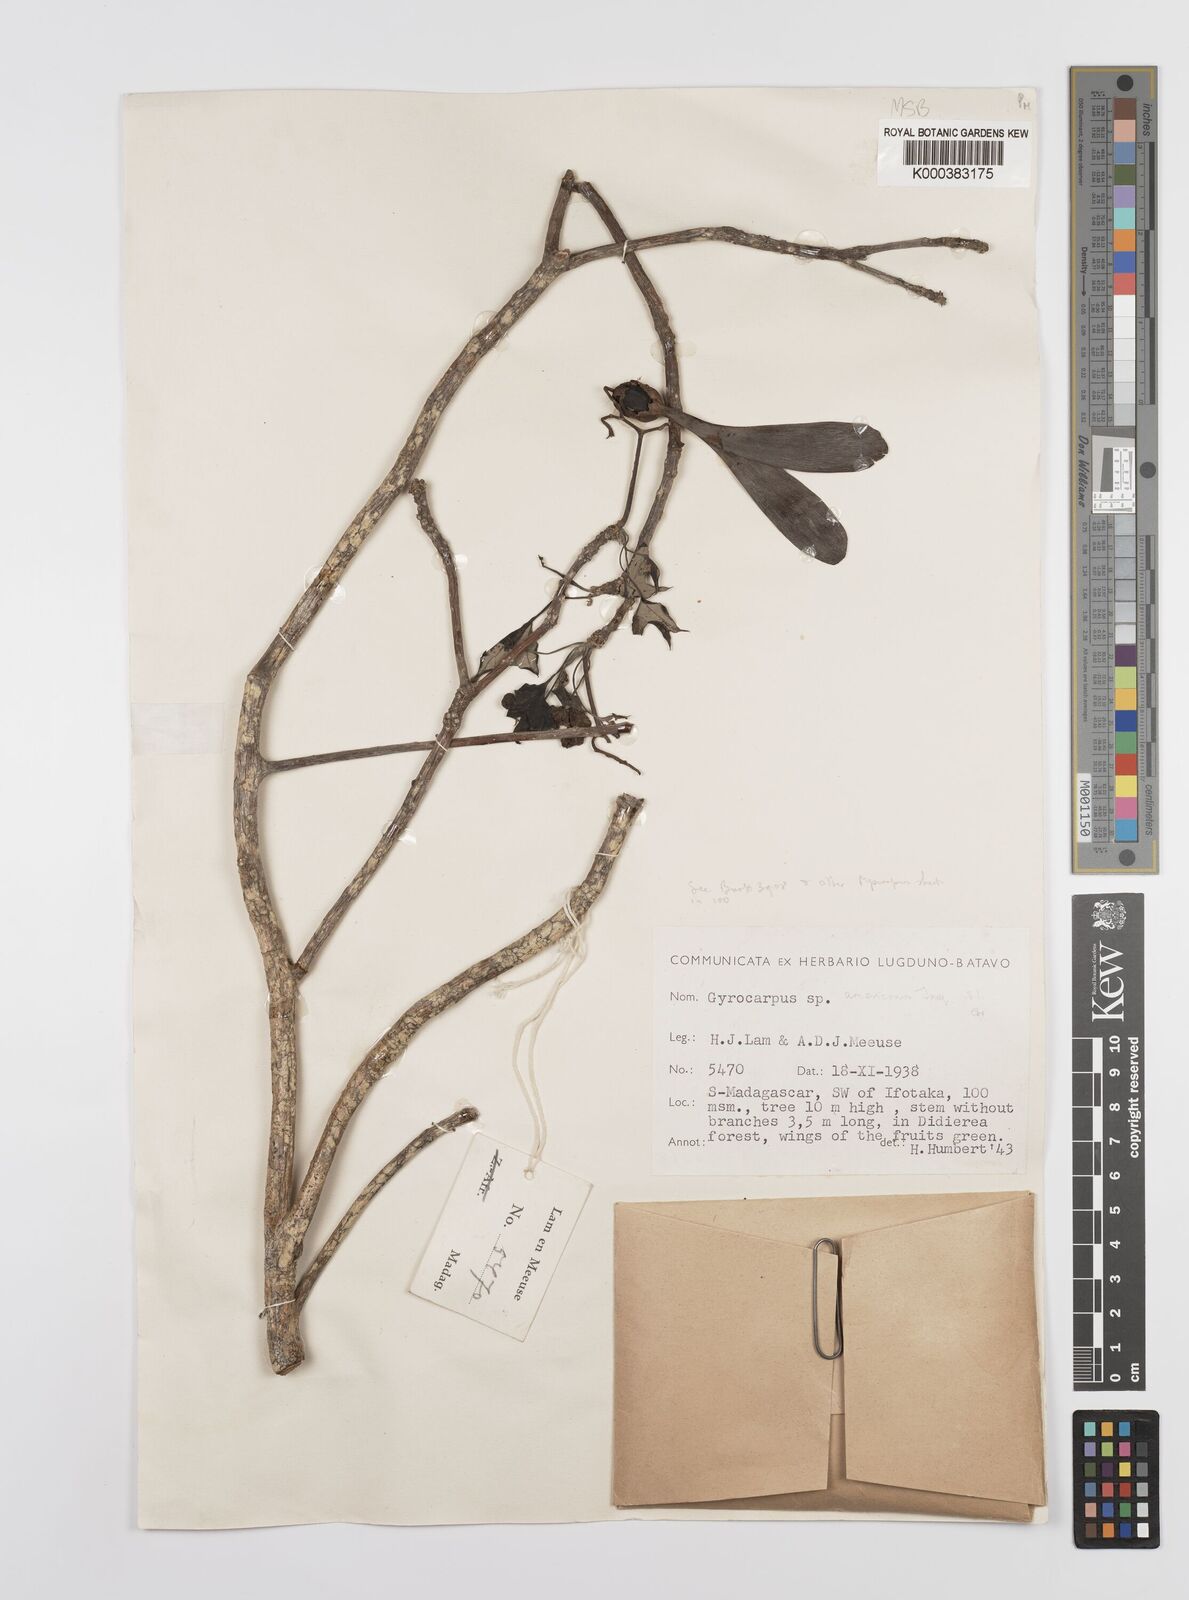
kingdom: Plantae
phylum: Tracheophyta
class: Magnoliopsida
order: Laurales
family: Hernandiaceae
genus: Gyrocarpus
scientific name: Gyrocarpus americanus
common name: Gyro damson
